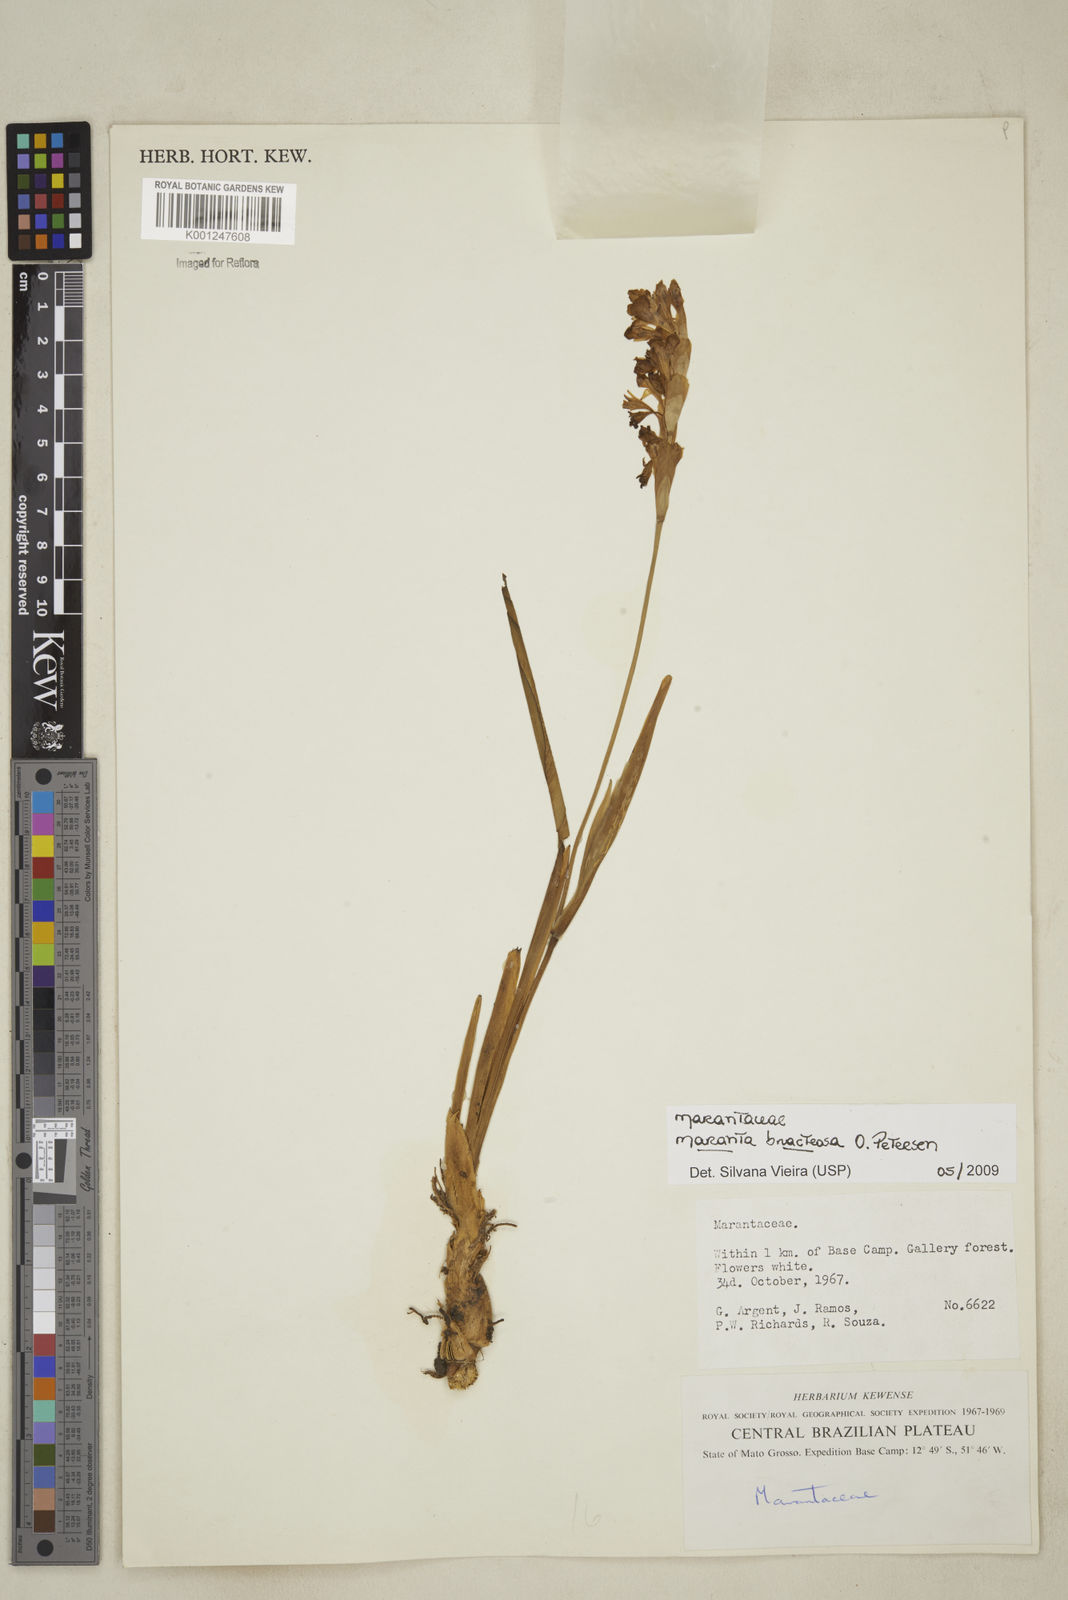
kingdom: Plantae
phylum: Tracheophyta
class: Liliopsida
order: Zingiberales
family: Marantaceae
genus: Maranta
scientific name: Maranta bracteosa
